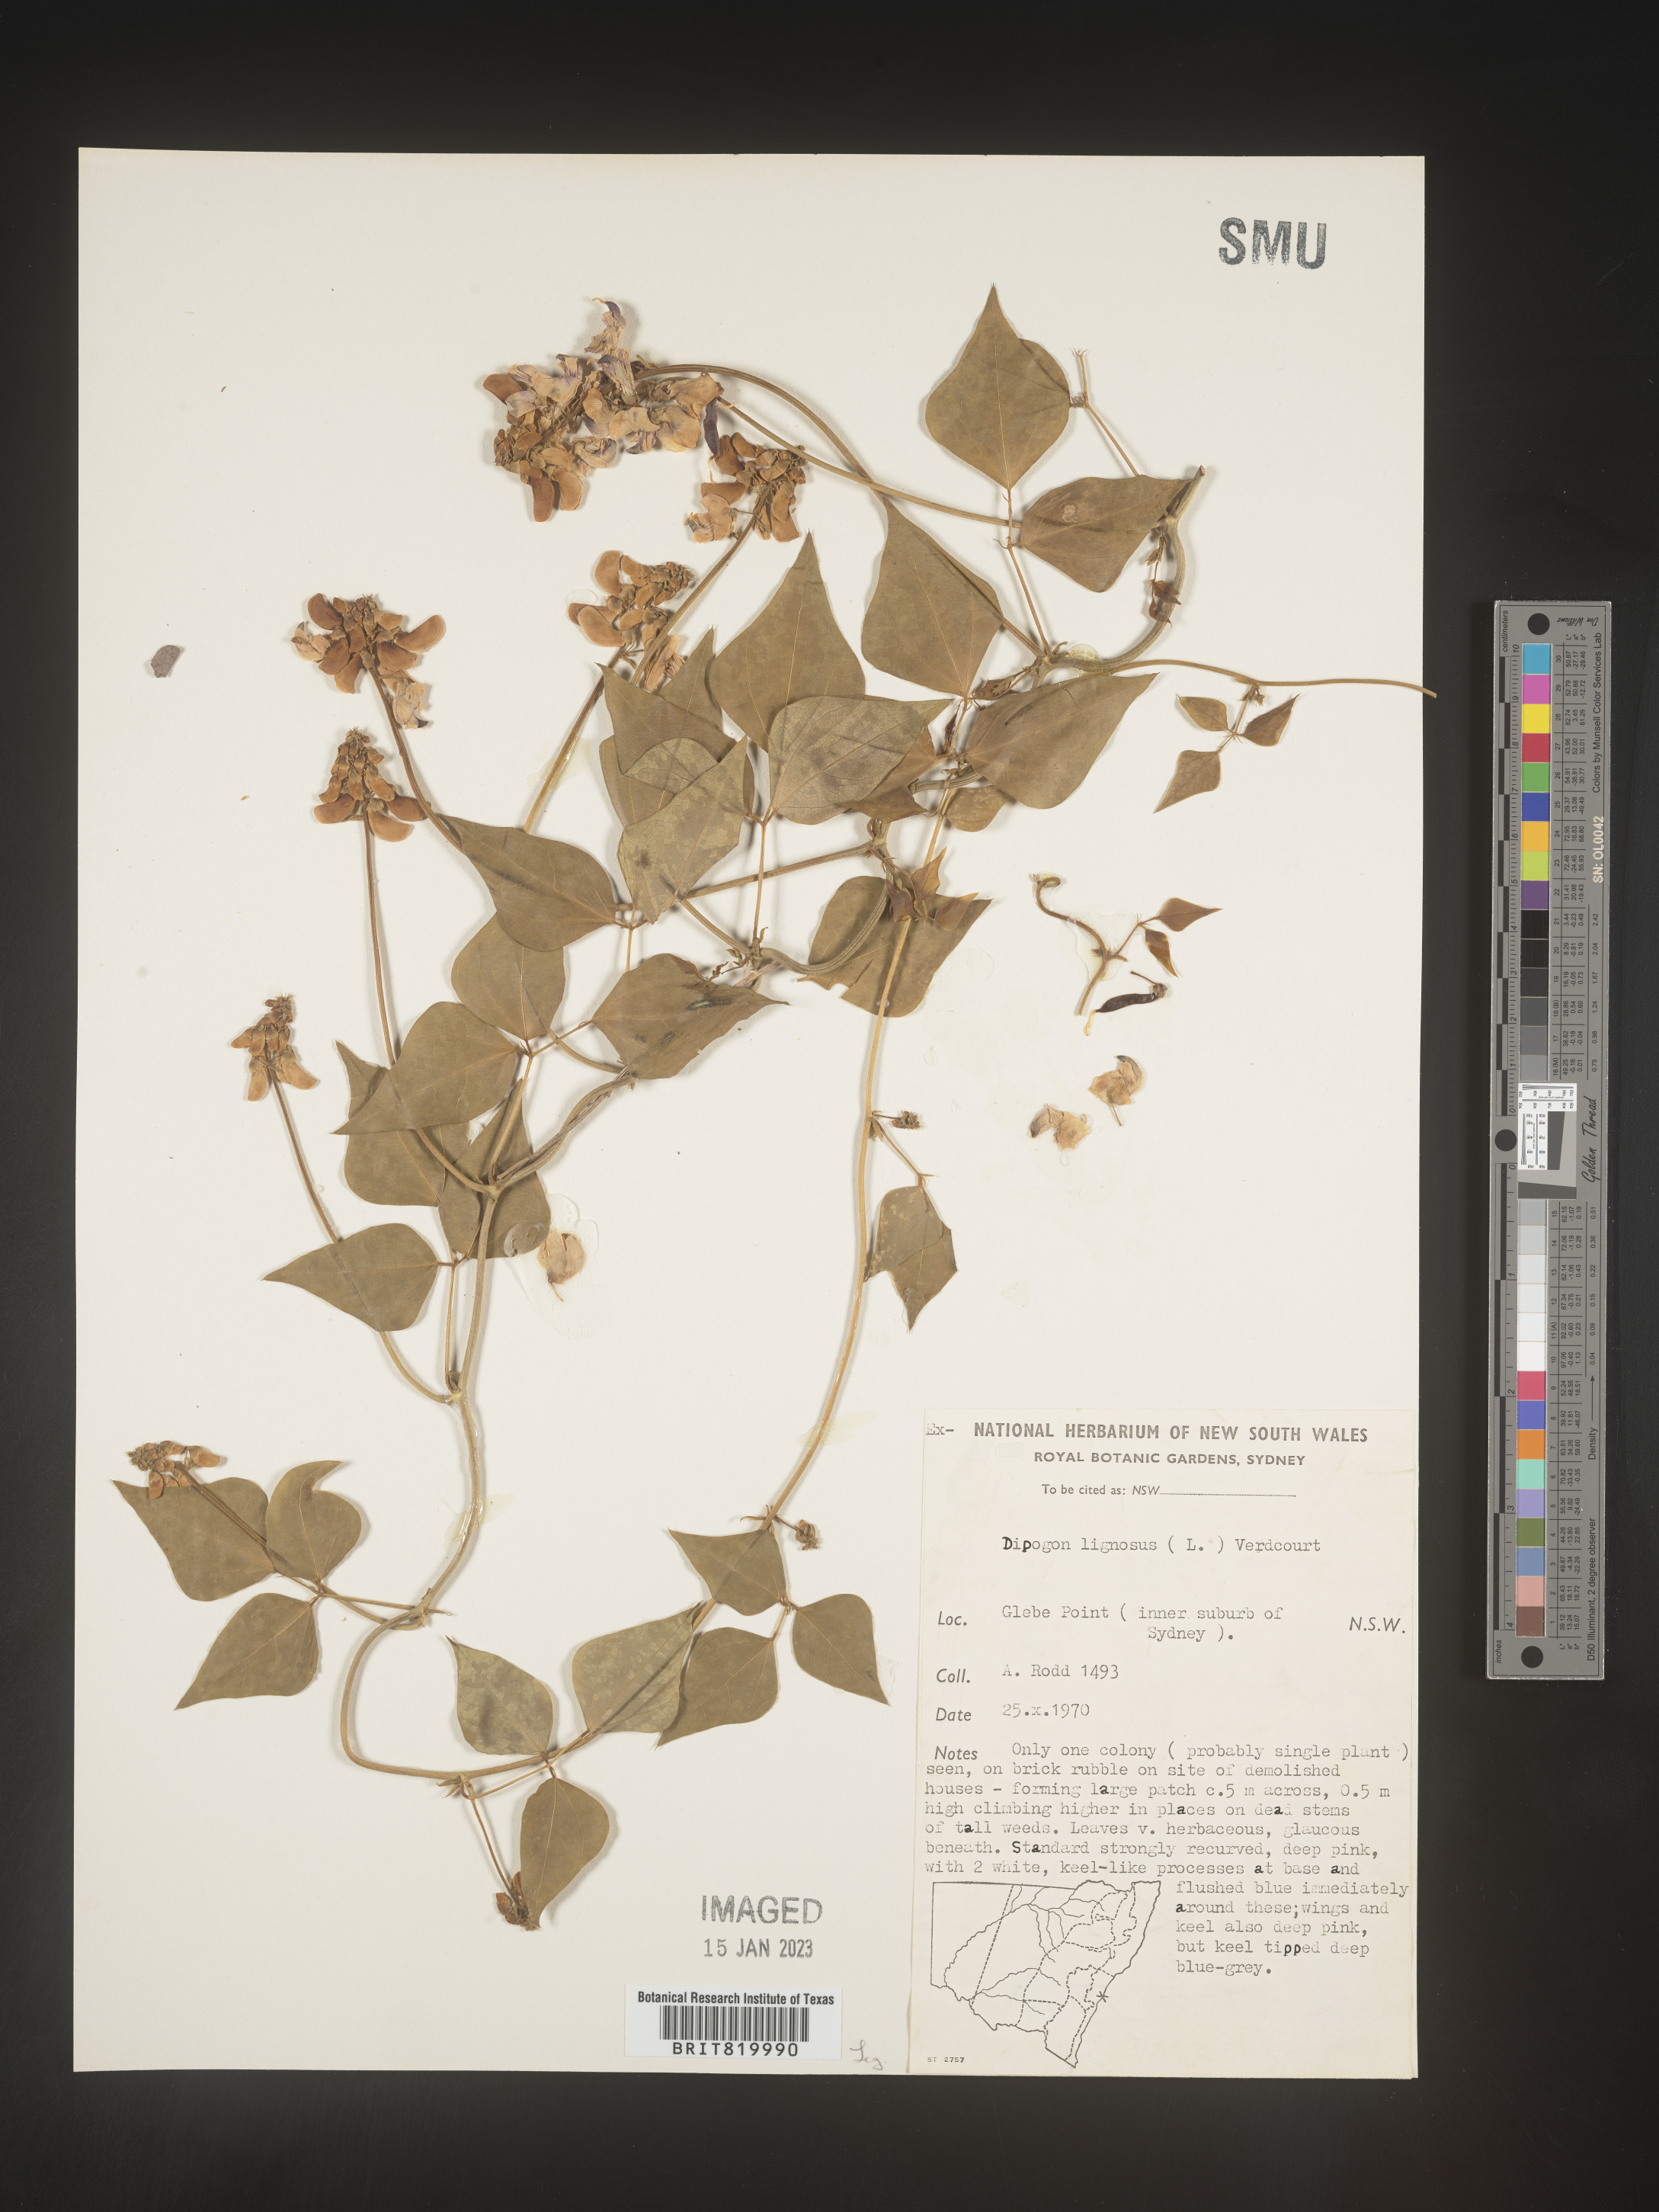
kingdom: Plantae
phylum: Tracheophyta
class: Magnoliopsida
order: Fabales
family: Fabaceae
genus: Dipogon
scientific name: Dipogon
